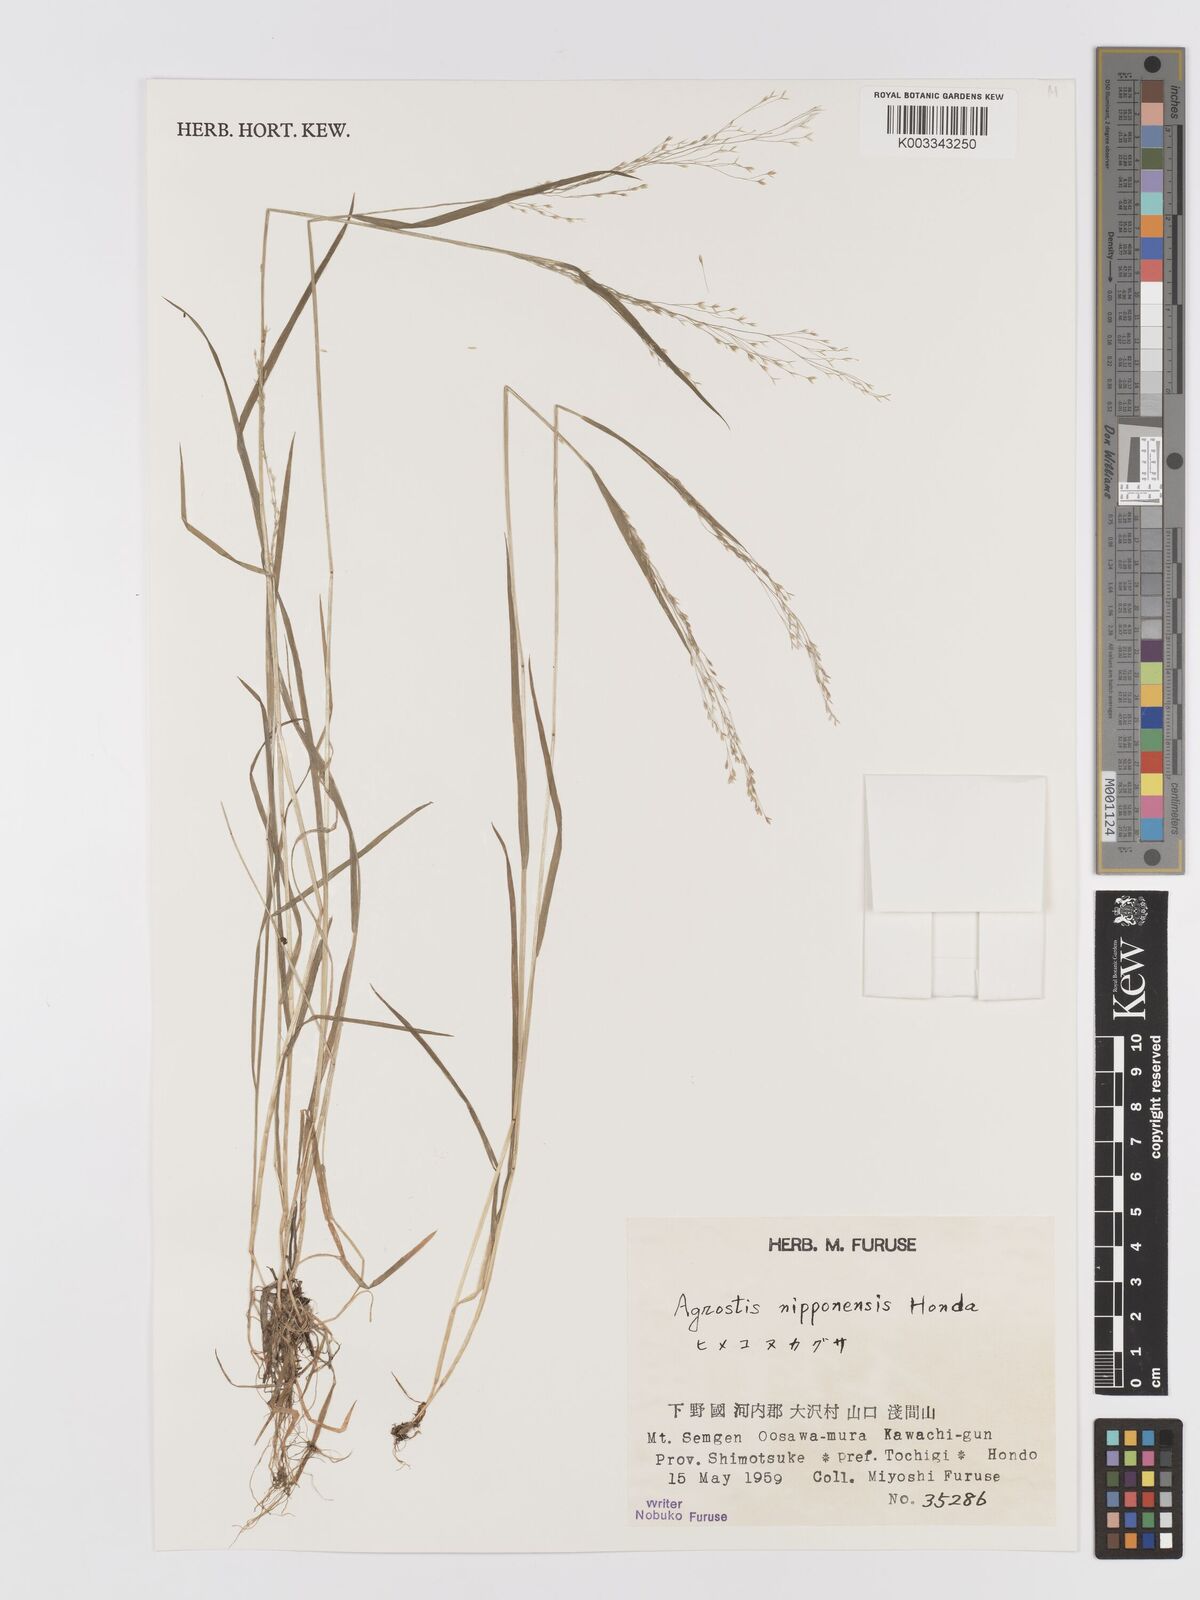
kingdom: Plantae
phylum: Tracheophyta
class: Liliopsida
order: Poales
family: Poaceae
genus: Agrostis
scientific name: Agrostis valvata
